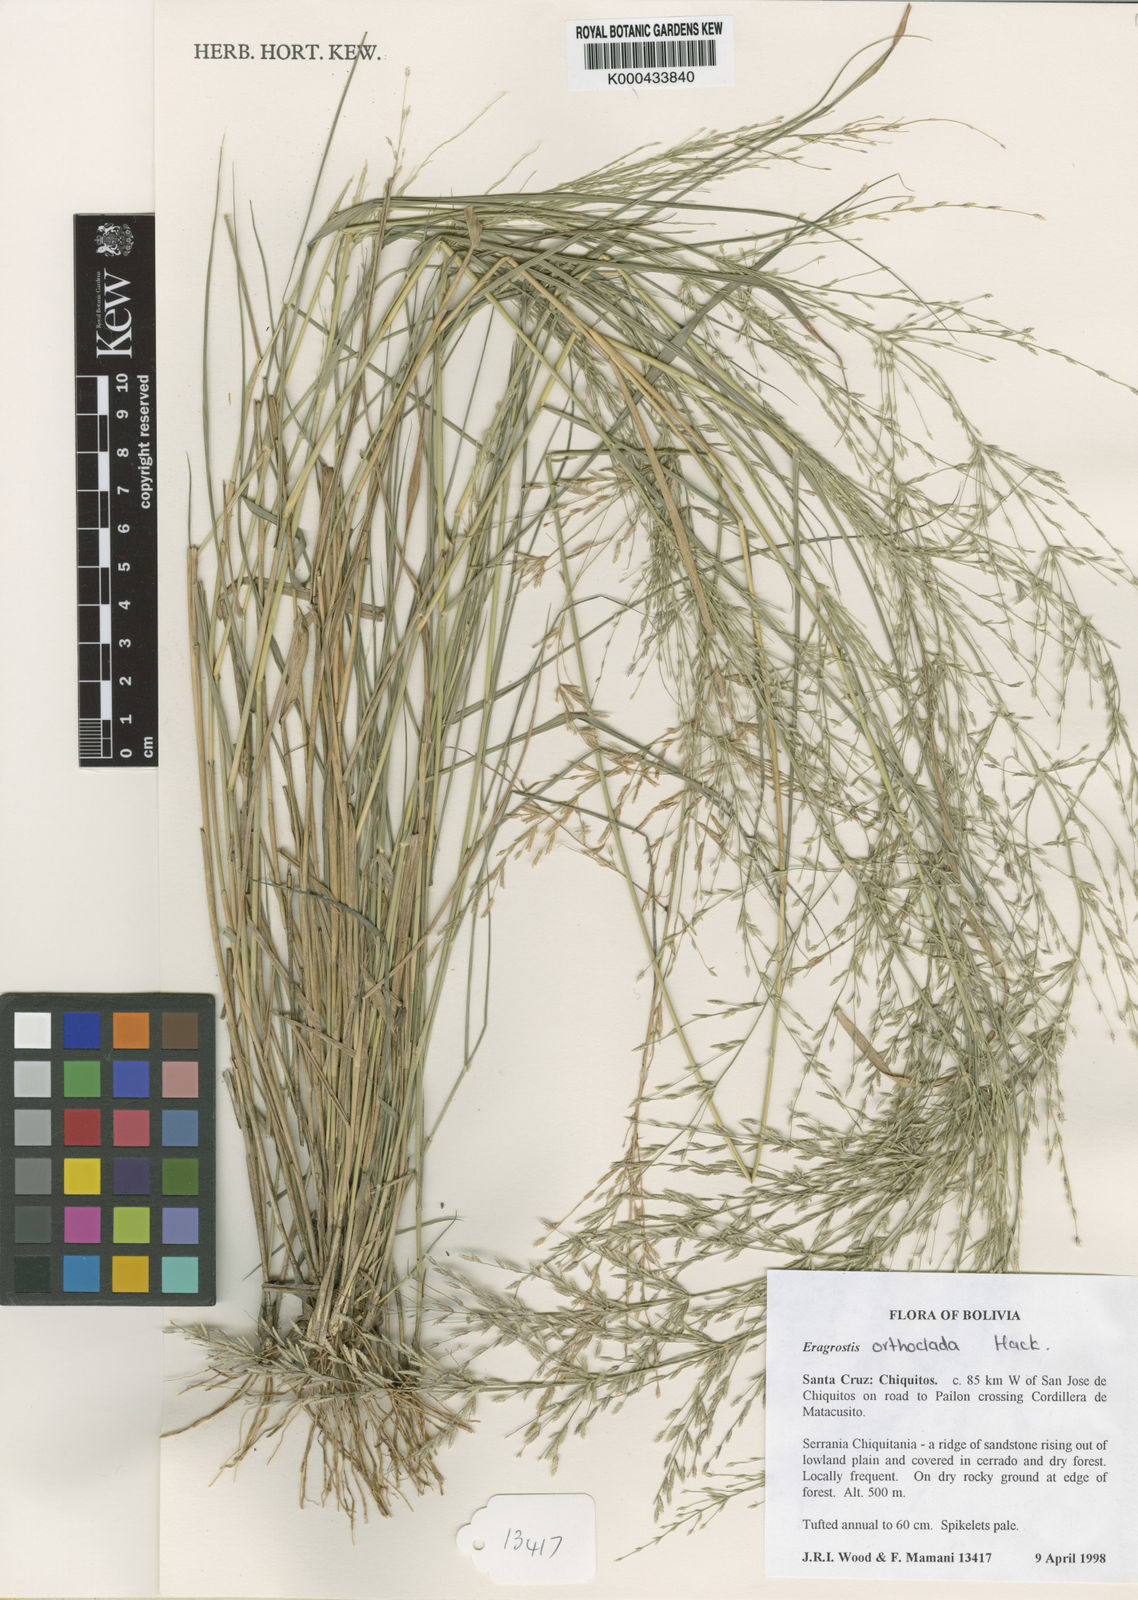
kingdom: Plantae
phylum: Tracheophyta
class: Liliopsida
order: Poales
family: Poaceae
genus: Eragrostis
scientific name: Eragrostis orthoclada
